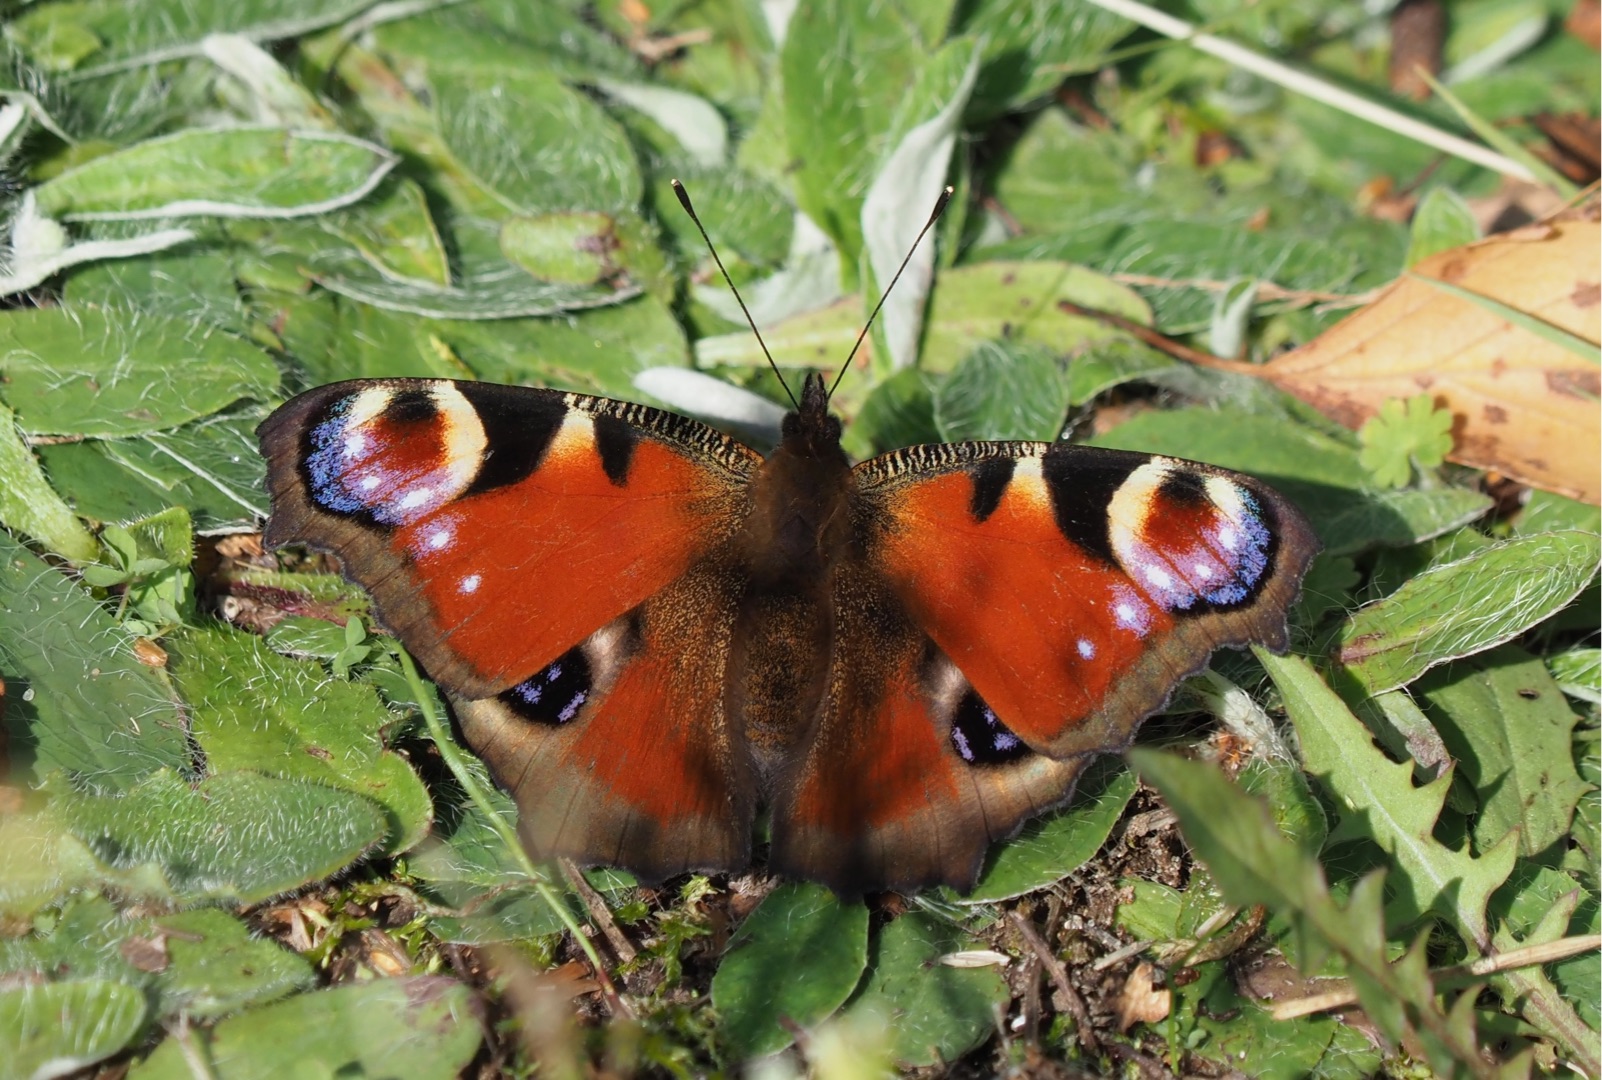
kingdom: Animalia
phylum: Arthropoda
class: Insecta
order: Lepidoptera
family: Nymphalidae
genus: Aglais
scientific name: Aglais io
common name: Dagpåfugleøje
